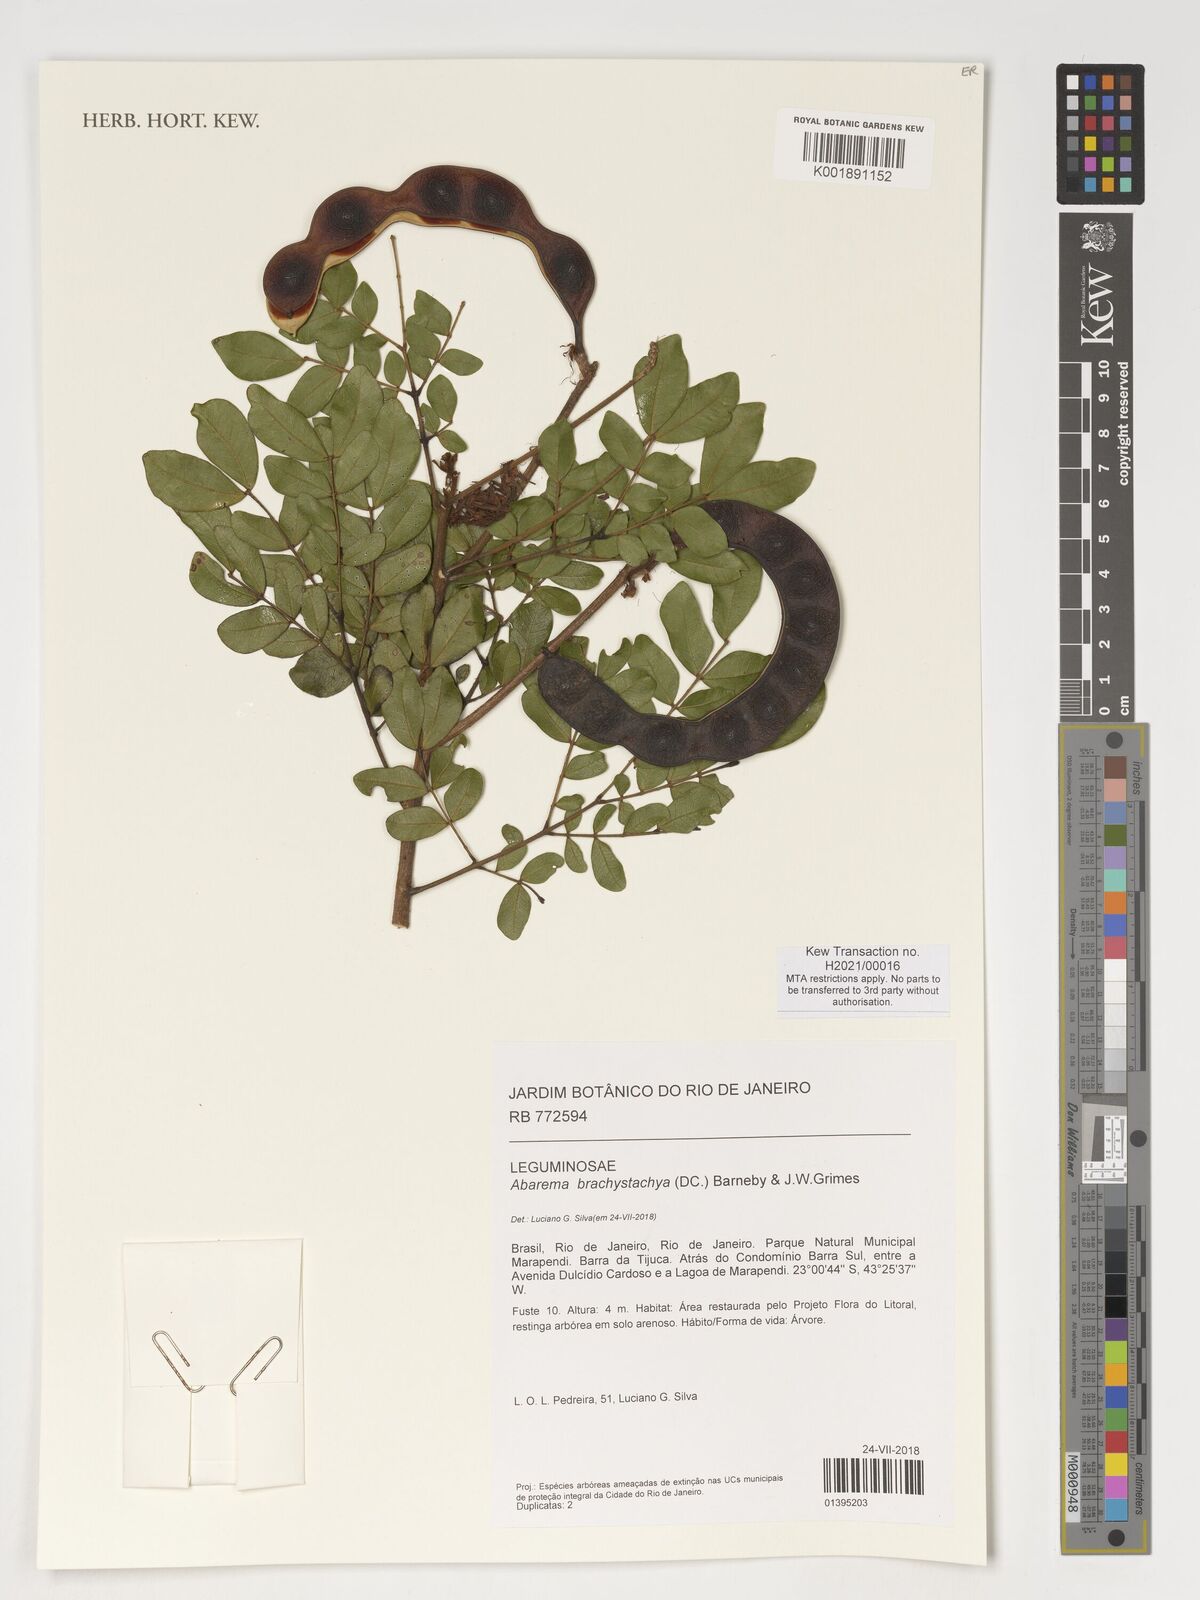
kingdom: Plantae
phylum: Tracheophyta
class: Magnoliopsida
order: Fabales
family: Fabaceae
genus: Jupunba
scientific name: Jupunba brachystachya
